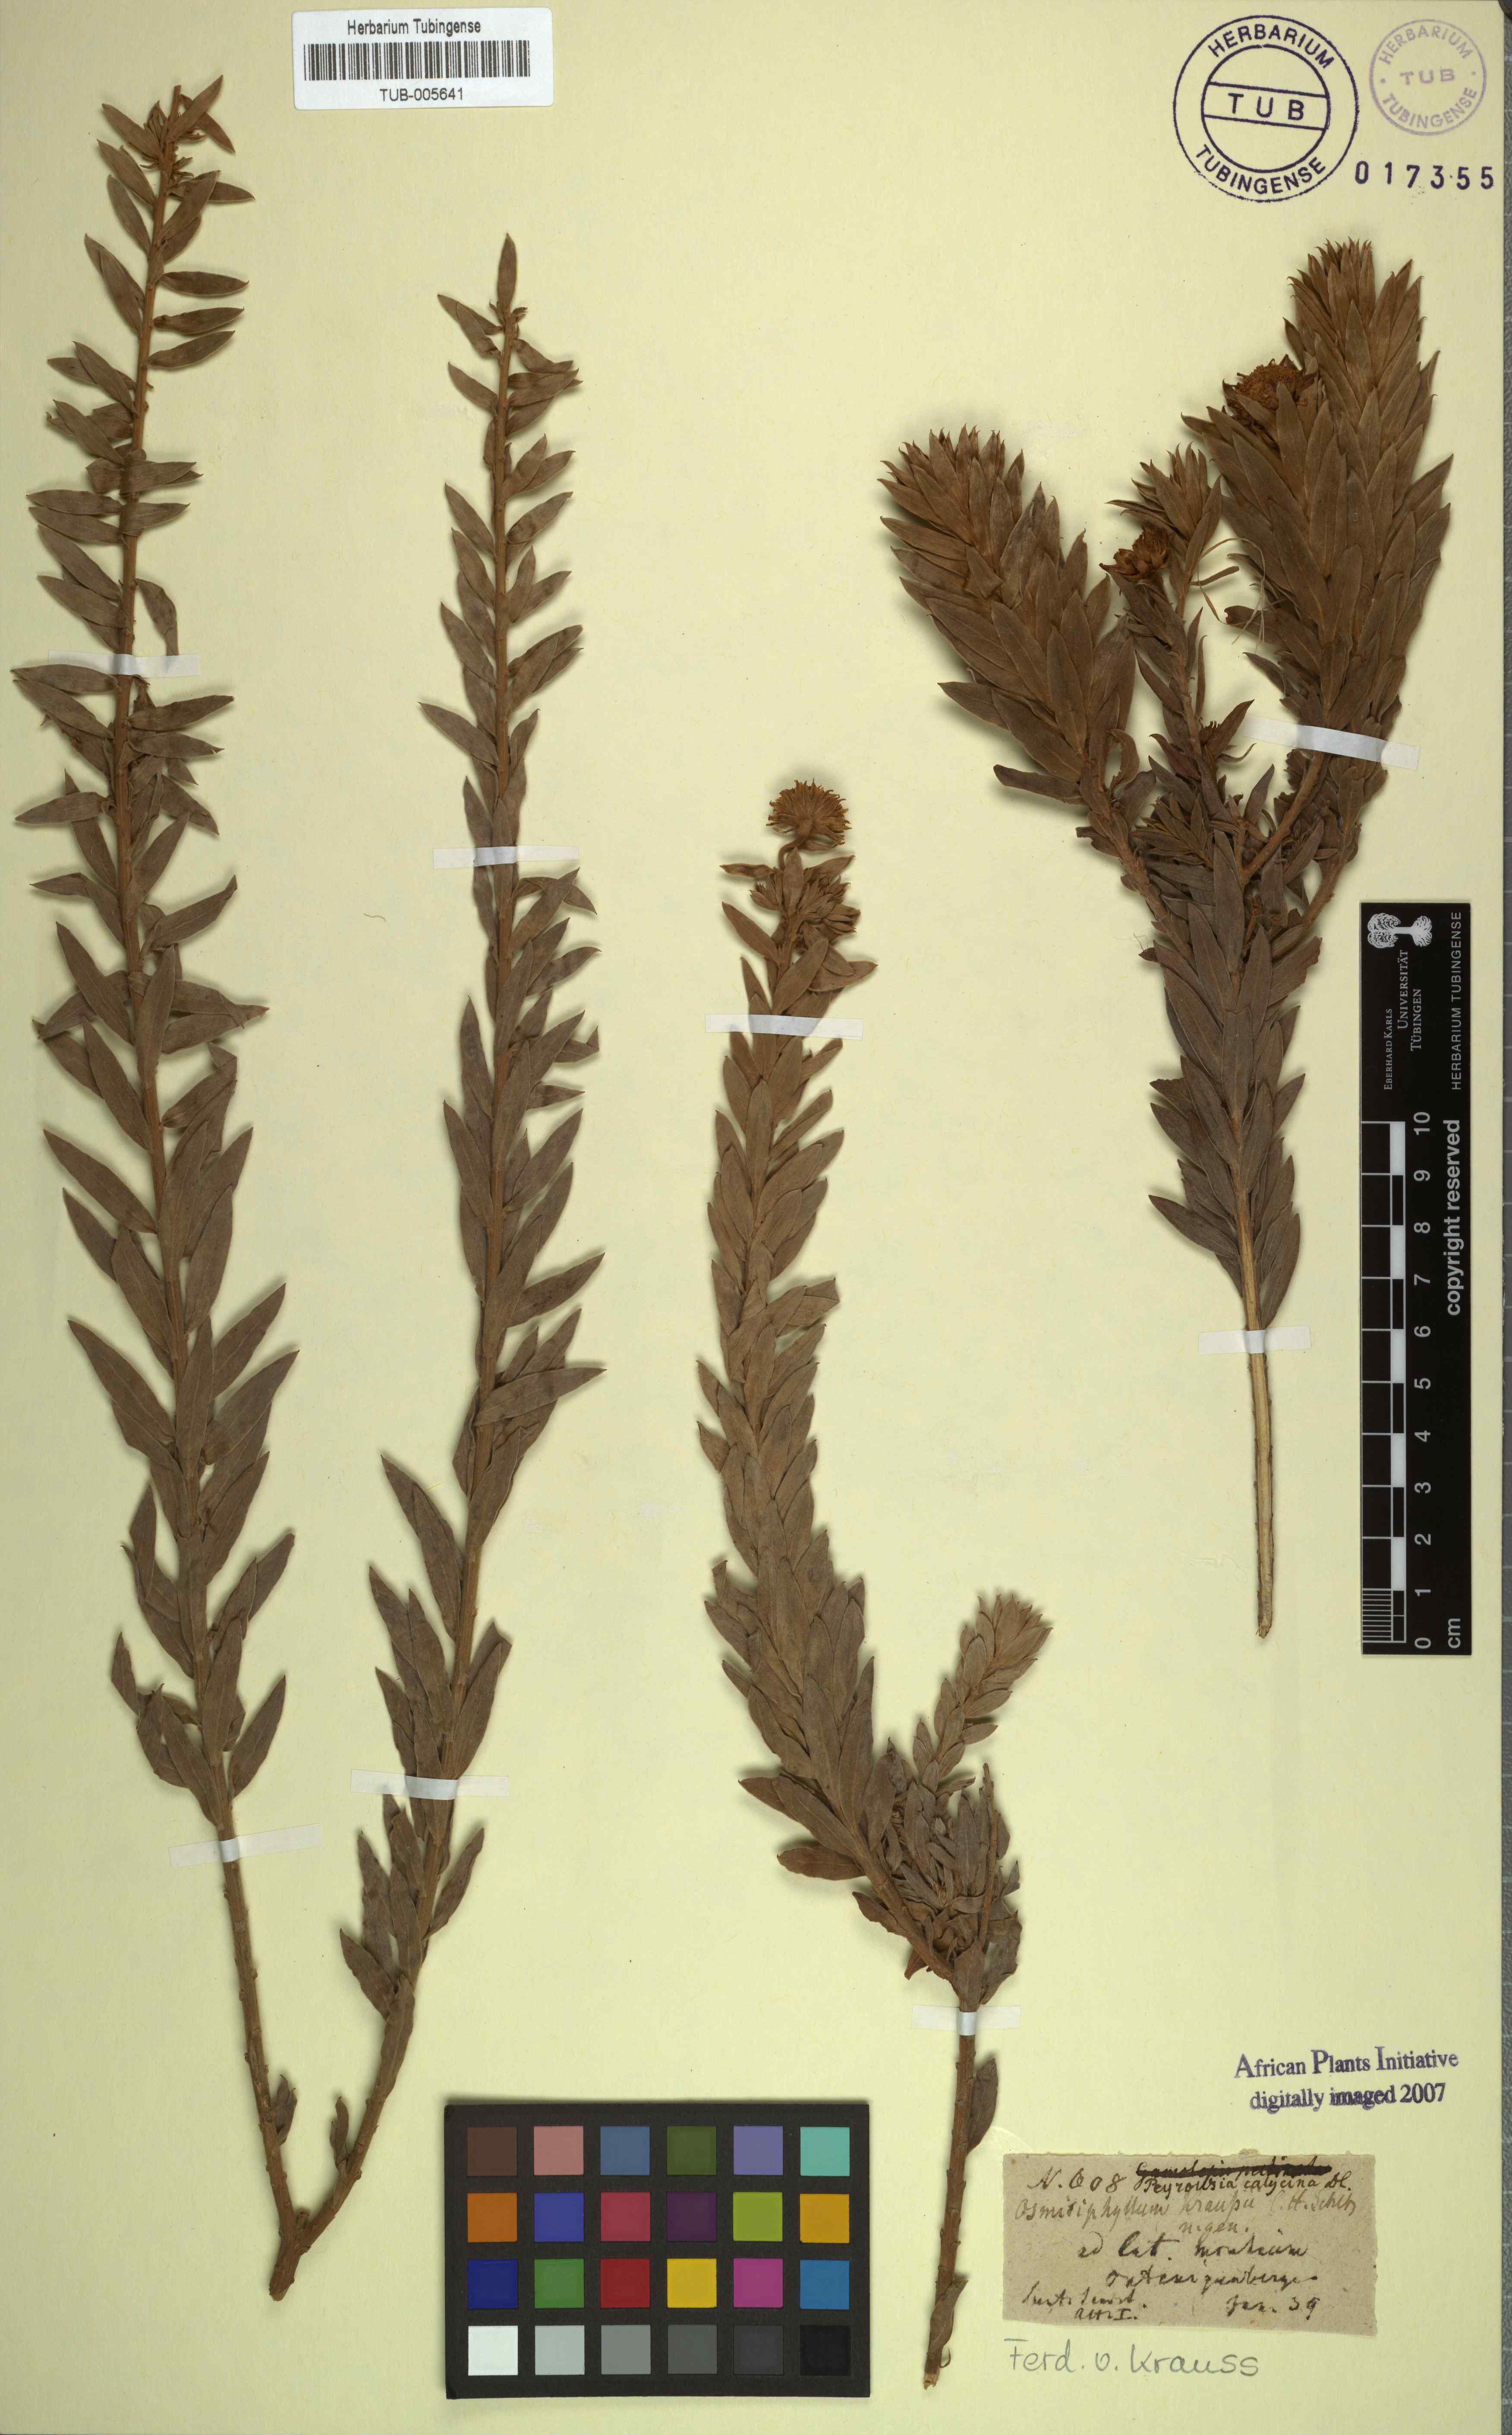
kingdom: Plantae
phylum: Tracheophyta
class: Magnoliopsida
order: Asterales
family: Asteraceae
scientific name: Asteraceae
